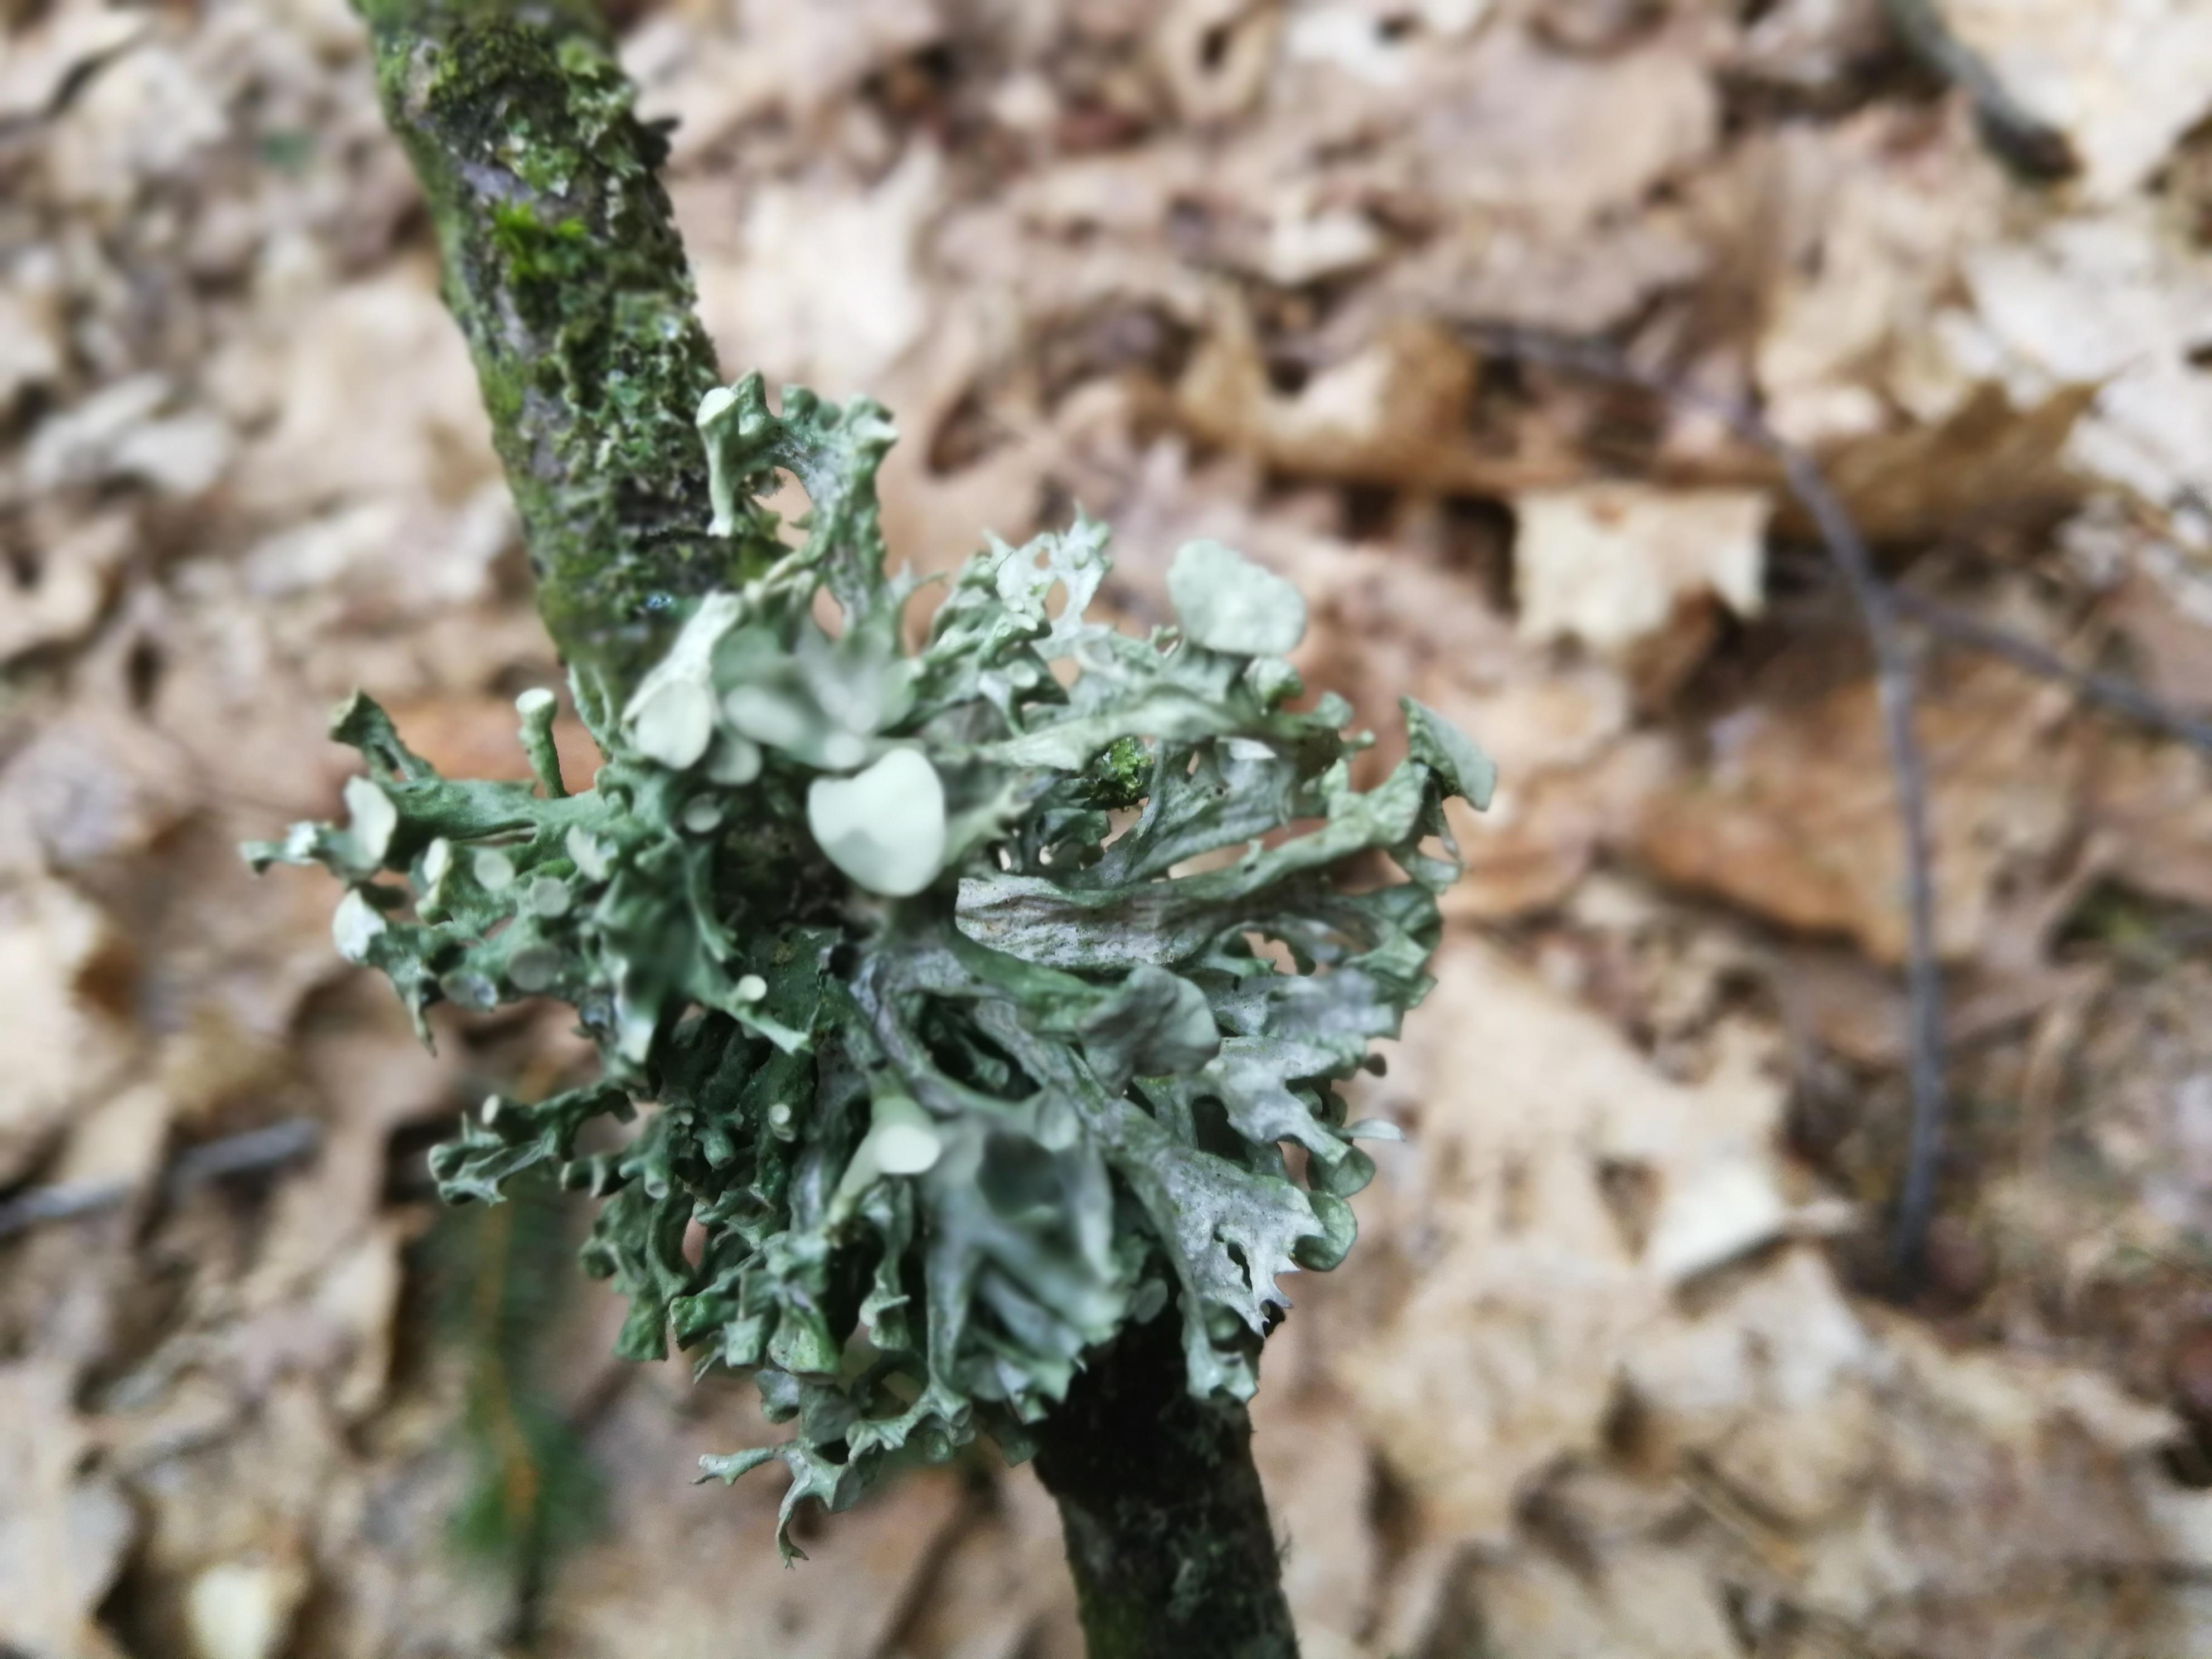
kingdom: Fungi
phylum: Ascomycota
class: Lecanoromycetes
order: Lecanorales
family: Ramalinaceae
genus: Ramalina
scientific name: Ramalina fastigiata
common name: tue-grenlav
